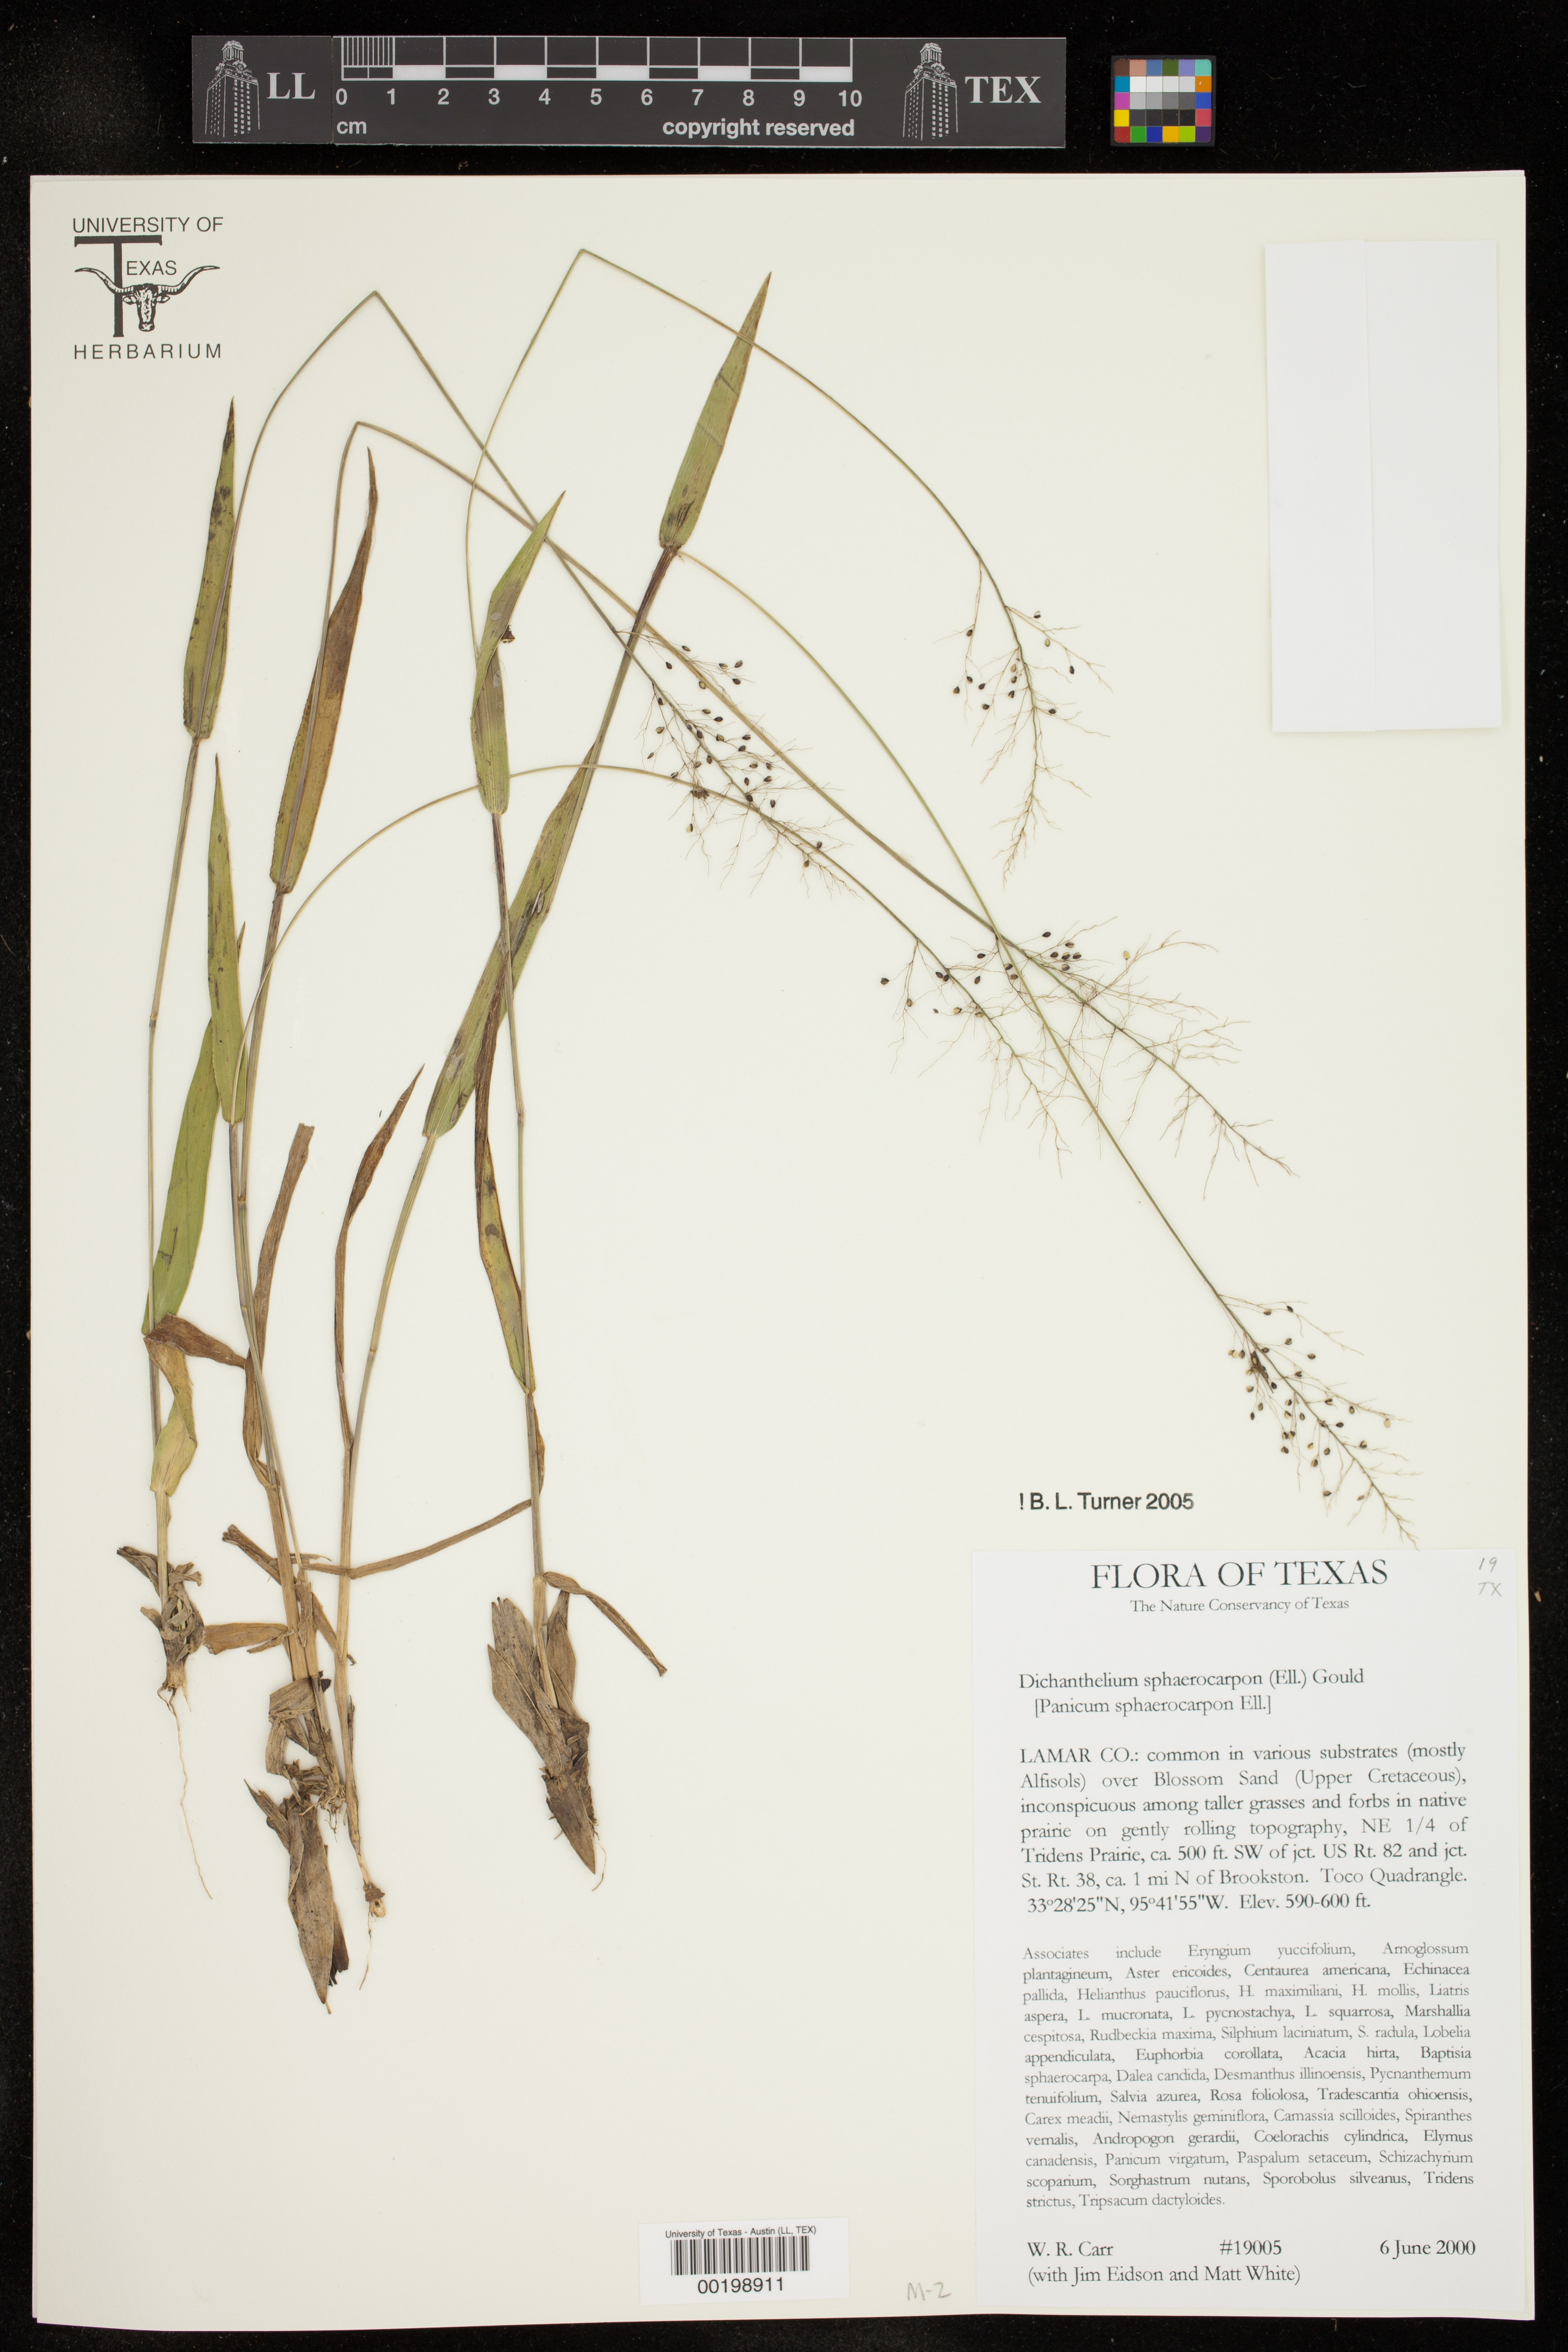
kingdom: Plantae
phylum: Tracheophyta
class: Liliopsida
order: Poales
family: Poaceae
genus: Dichanthelium
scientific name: Dichanthelium sphaerocarpon
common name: Round-fruited panicgrass
